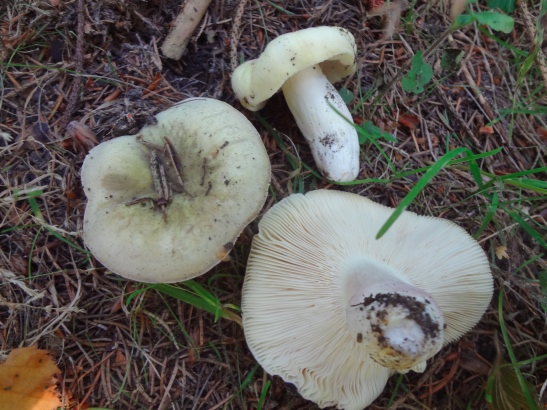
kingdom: Fungi
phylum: Basidiomycota
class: Agaricomycetes
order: Russulales
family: Russulaceae
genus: Russula
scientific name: Russula violeipes
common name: ferskengul skørhat
